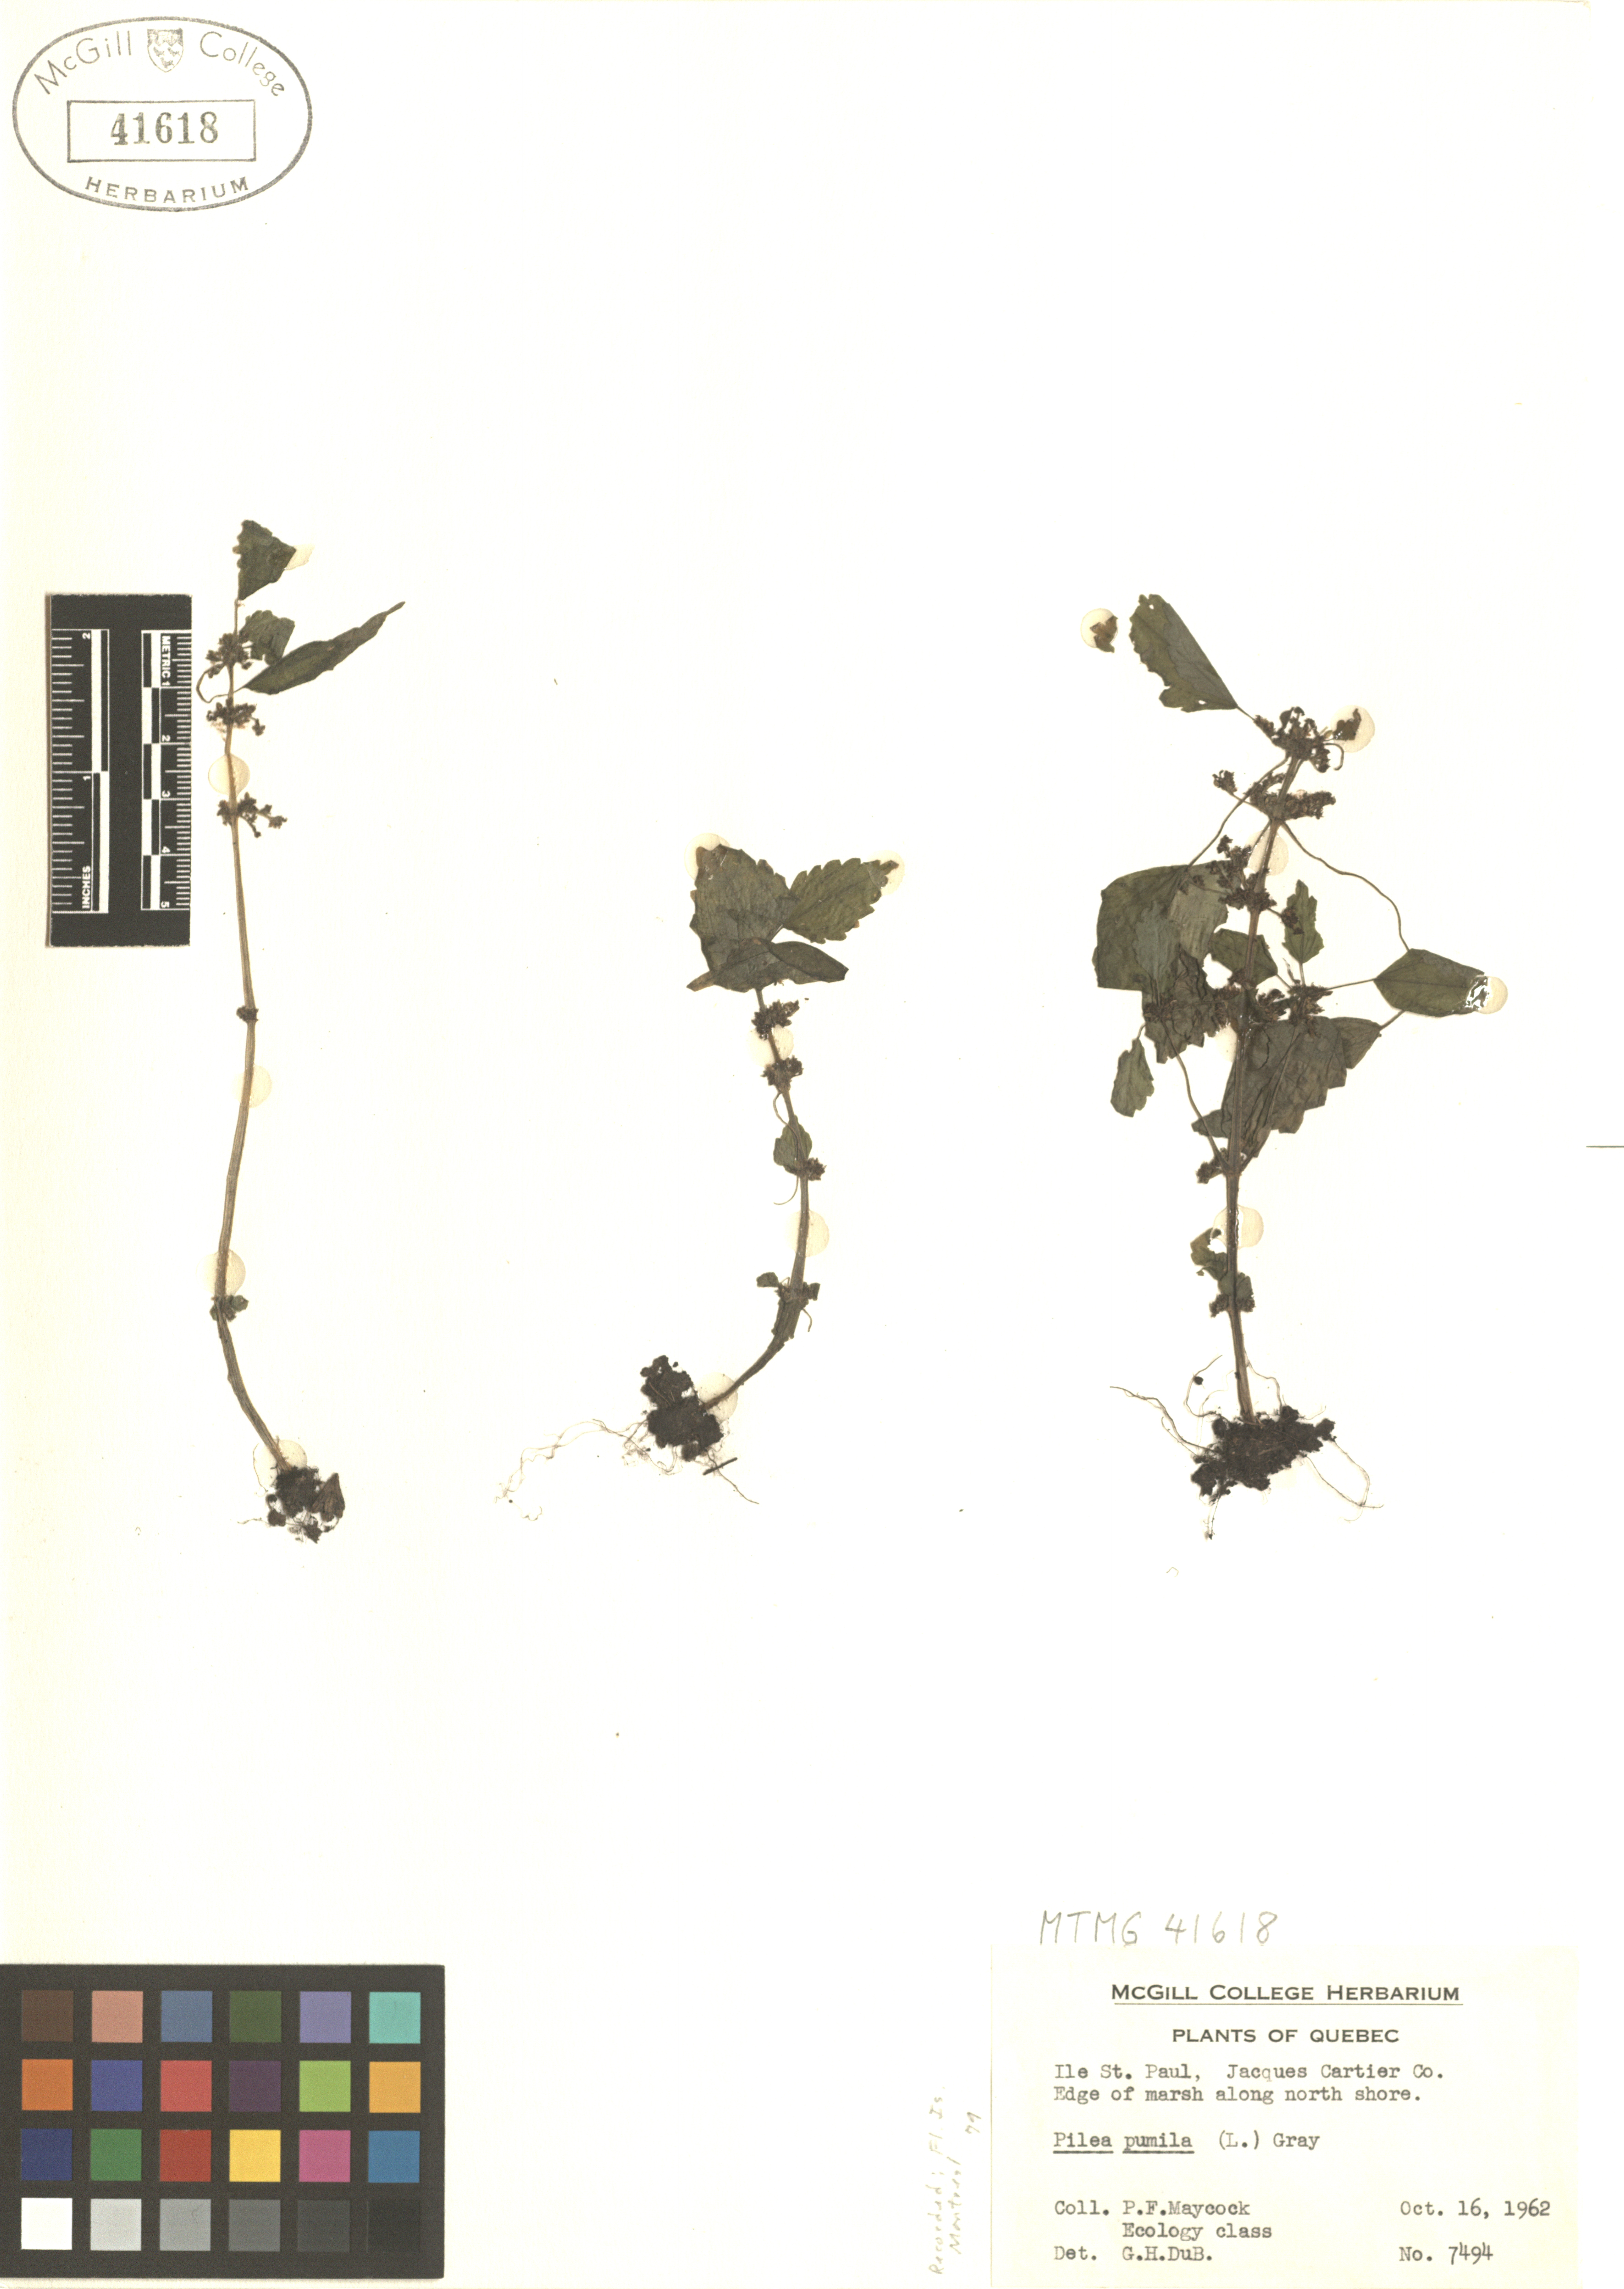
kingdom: Plantae
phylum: Tracheophyta
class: Magnoliopsida
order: Rosales
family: Urticaceae
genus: Pilea
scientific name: Pilea pumila
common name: Clearweed
